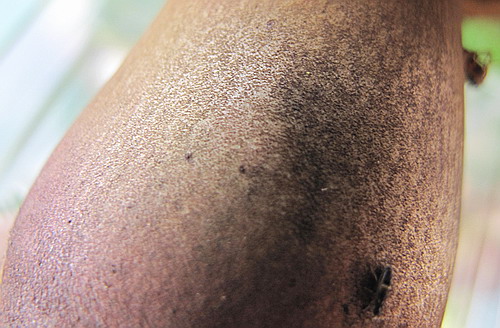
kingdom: Fungi
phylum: Basidiomycota
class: Agaricomycetes
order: Boletales
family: Boletaceae
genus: Neoboletus
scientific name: Neoboletus erythropus
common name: punktstokket indigorørhat
